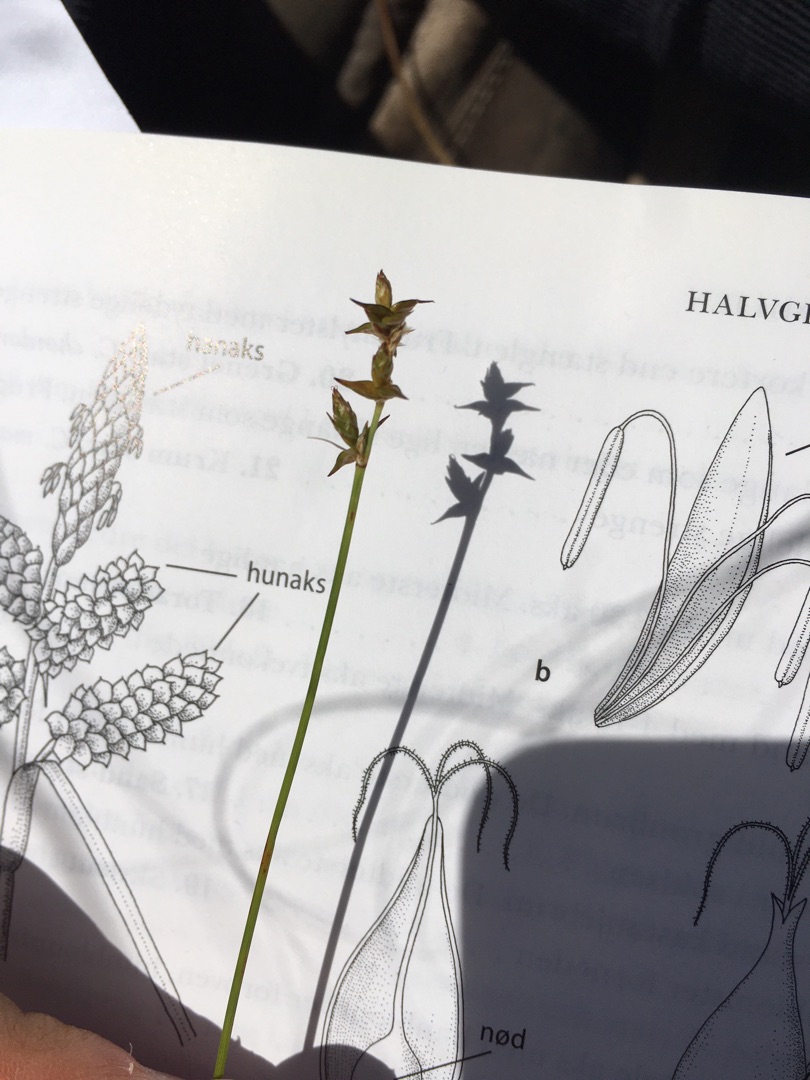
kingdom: Plantae
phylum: Tracheophyta
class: Liliopsida
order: Poales
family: Cyperaceae
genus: Carex
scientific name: Carex echinata
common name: Stjerne-star
